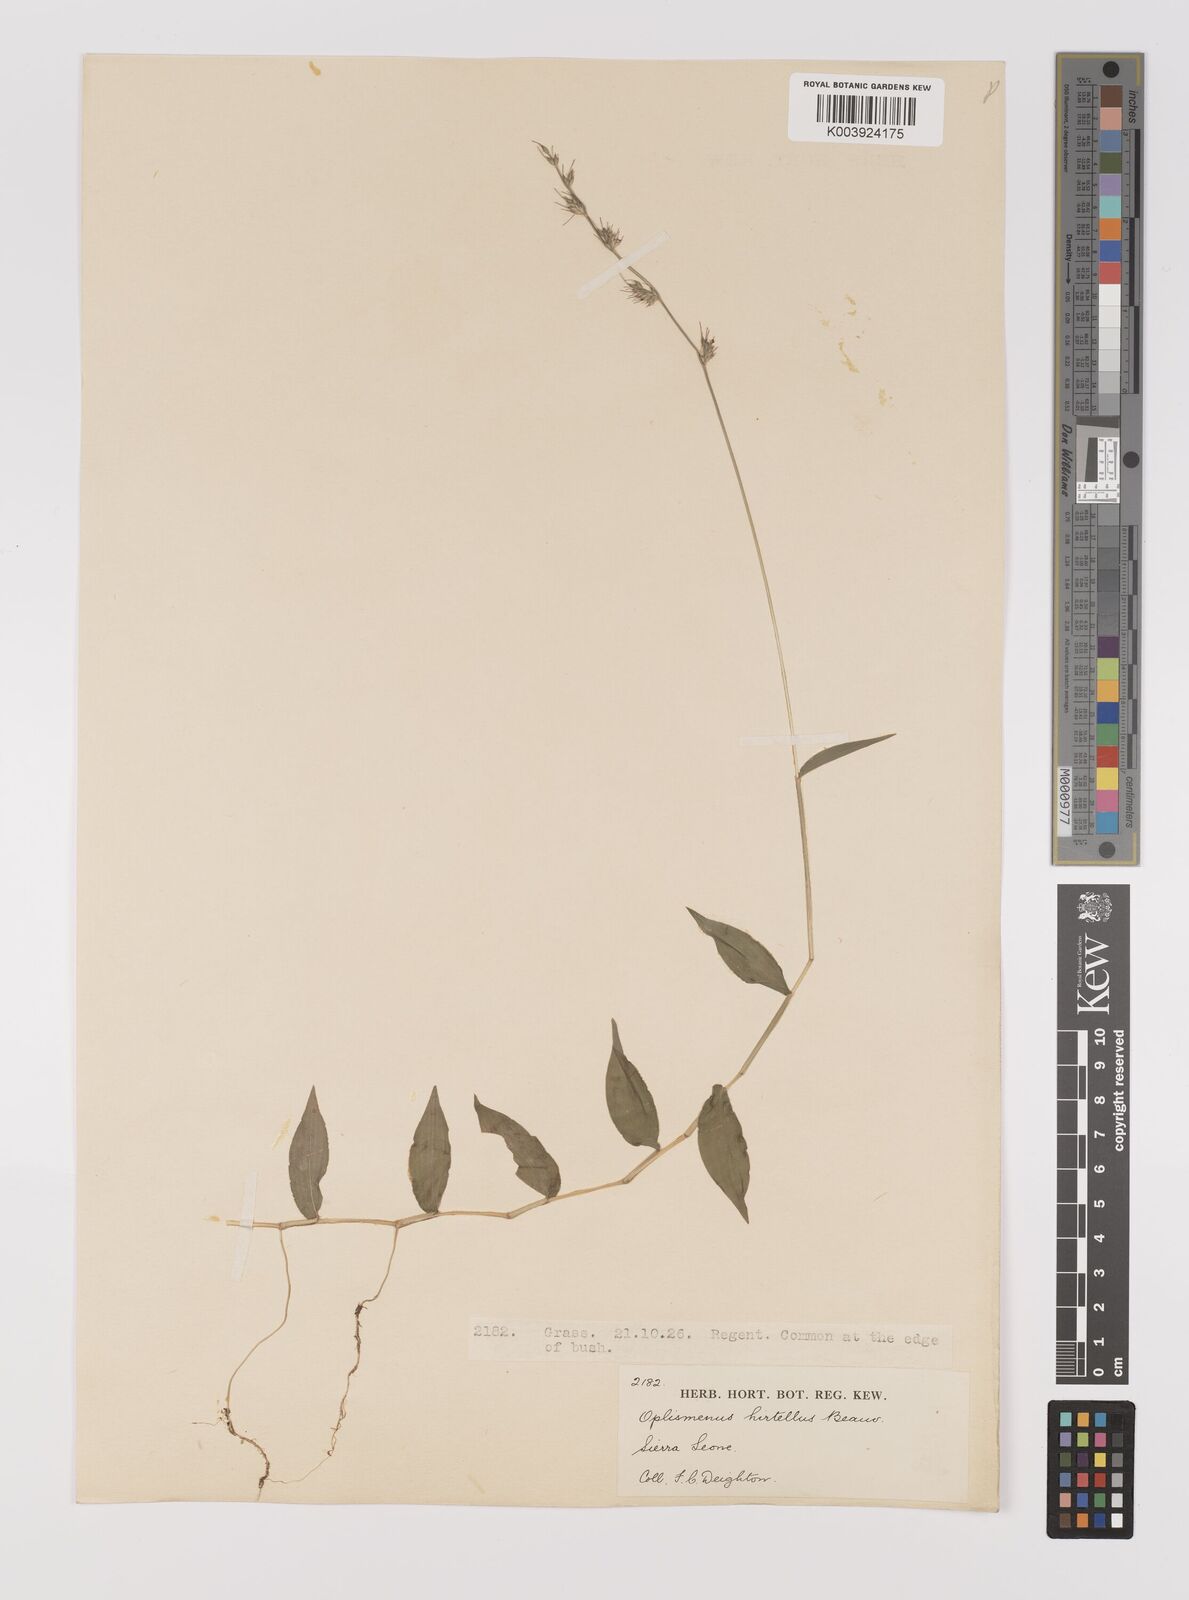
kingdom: Plantae
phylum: Tracheophyta
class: Liliopsida
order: Poales
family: Poaceae
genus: Oplismenus
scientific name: Oplismenus hirtellus
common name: Basketgrass
